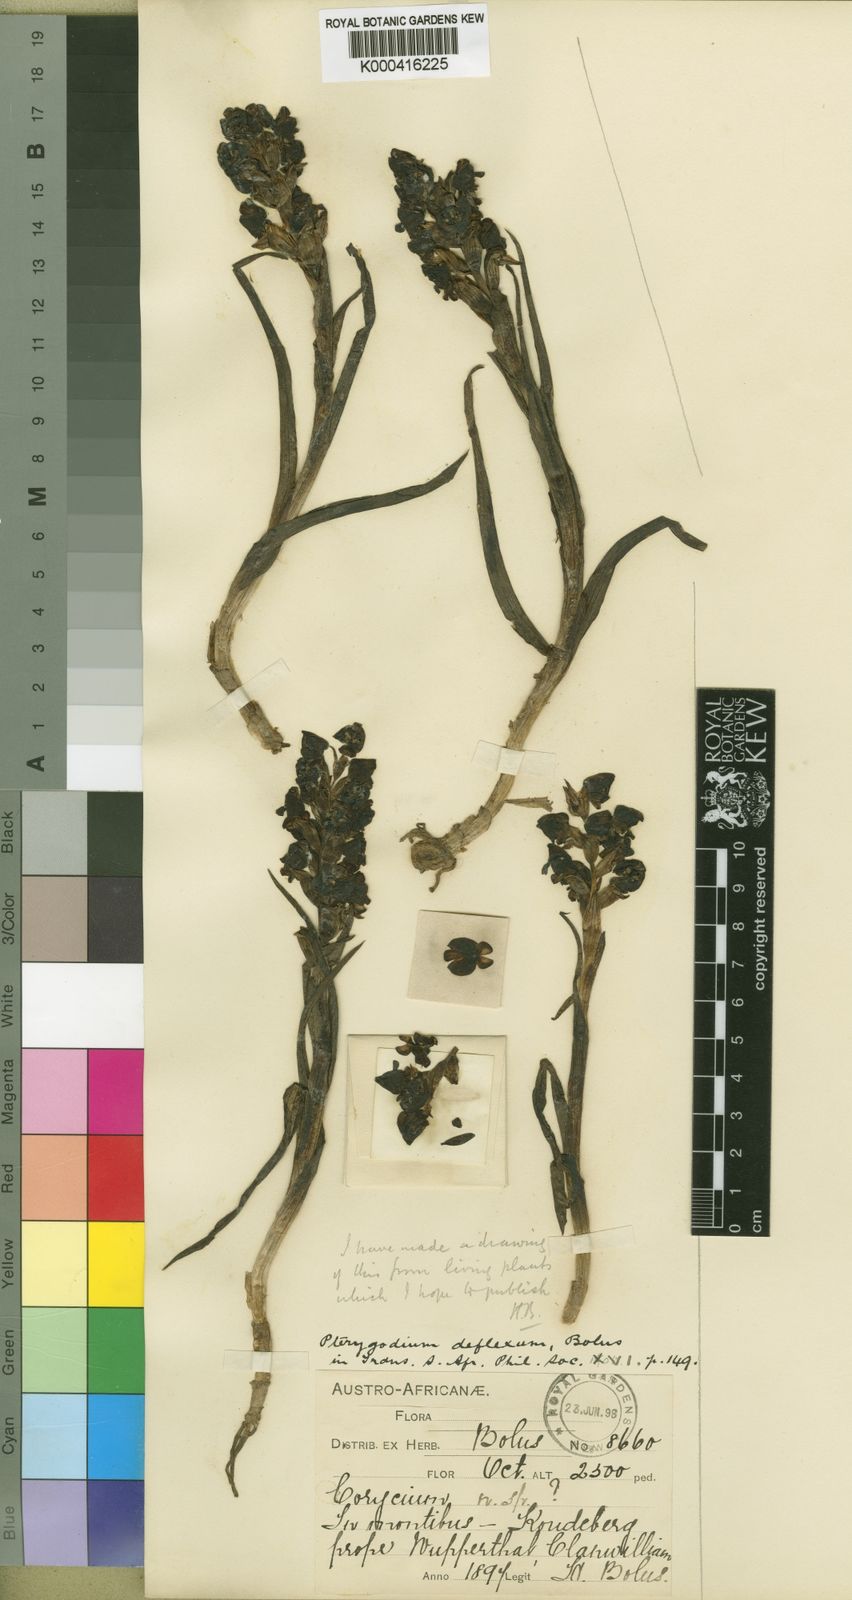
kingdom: Plantae
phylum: Tracheophyta
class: Liliopsida
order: Asparagales
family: Orchidaceae
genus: Corycium
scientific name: Corycium deflexum
